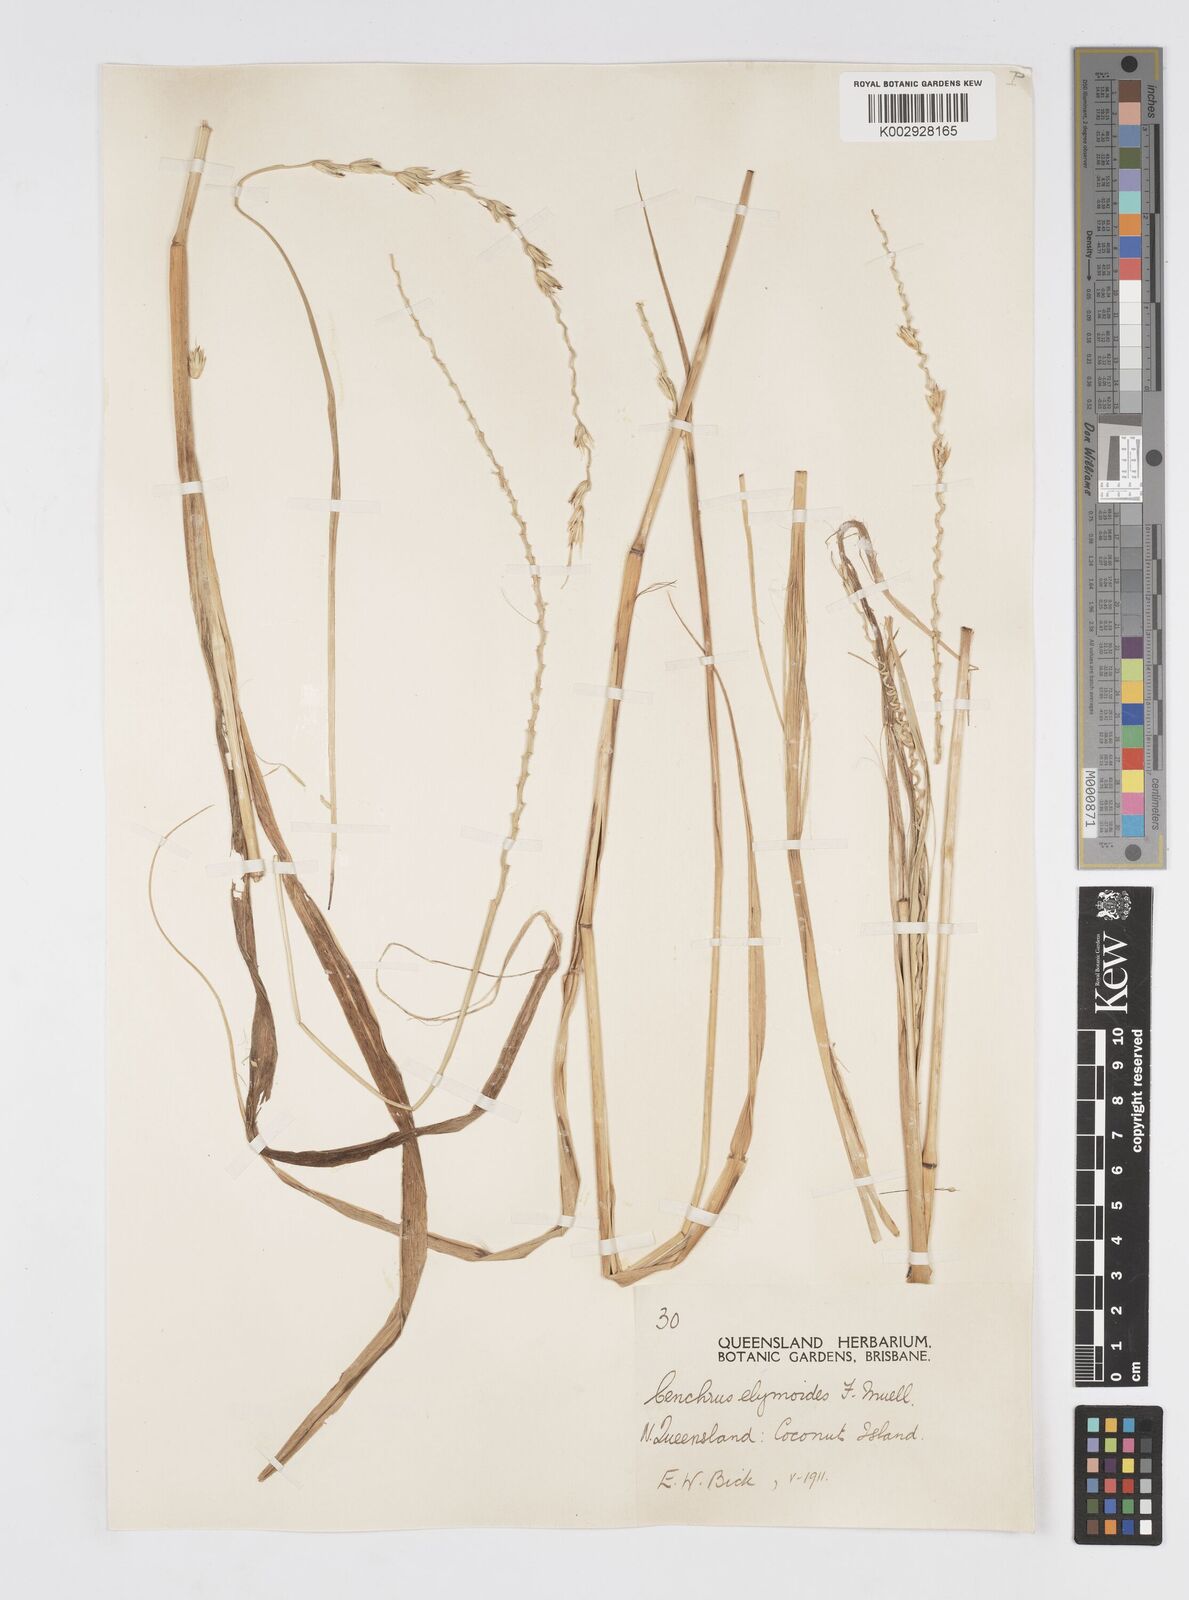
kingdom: Plantae
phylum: Tracheophyta
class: Liliopsida
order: Poales
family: Poaceae
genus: Cenchrus
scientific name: Cenchrus elymoides
